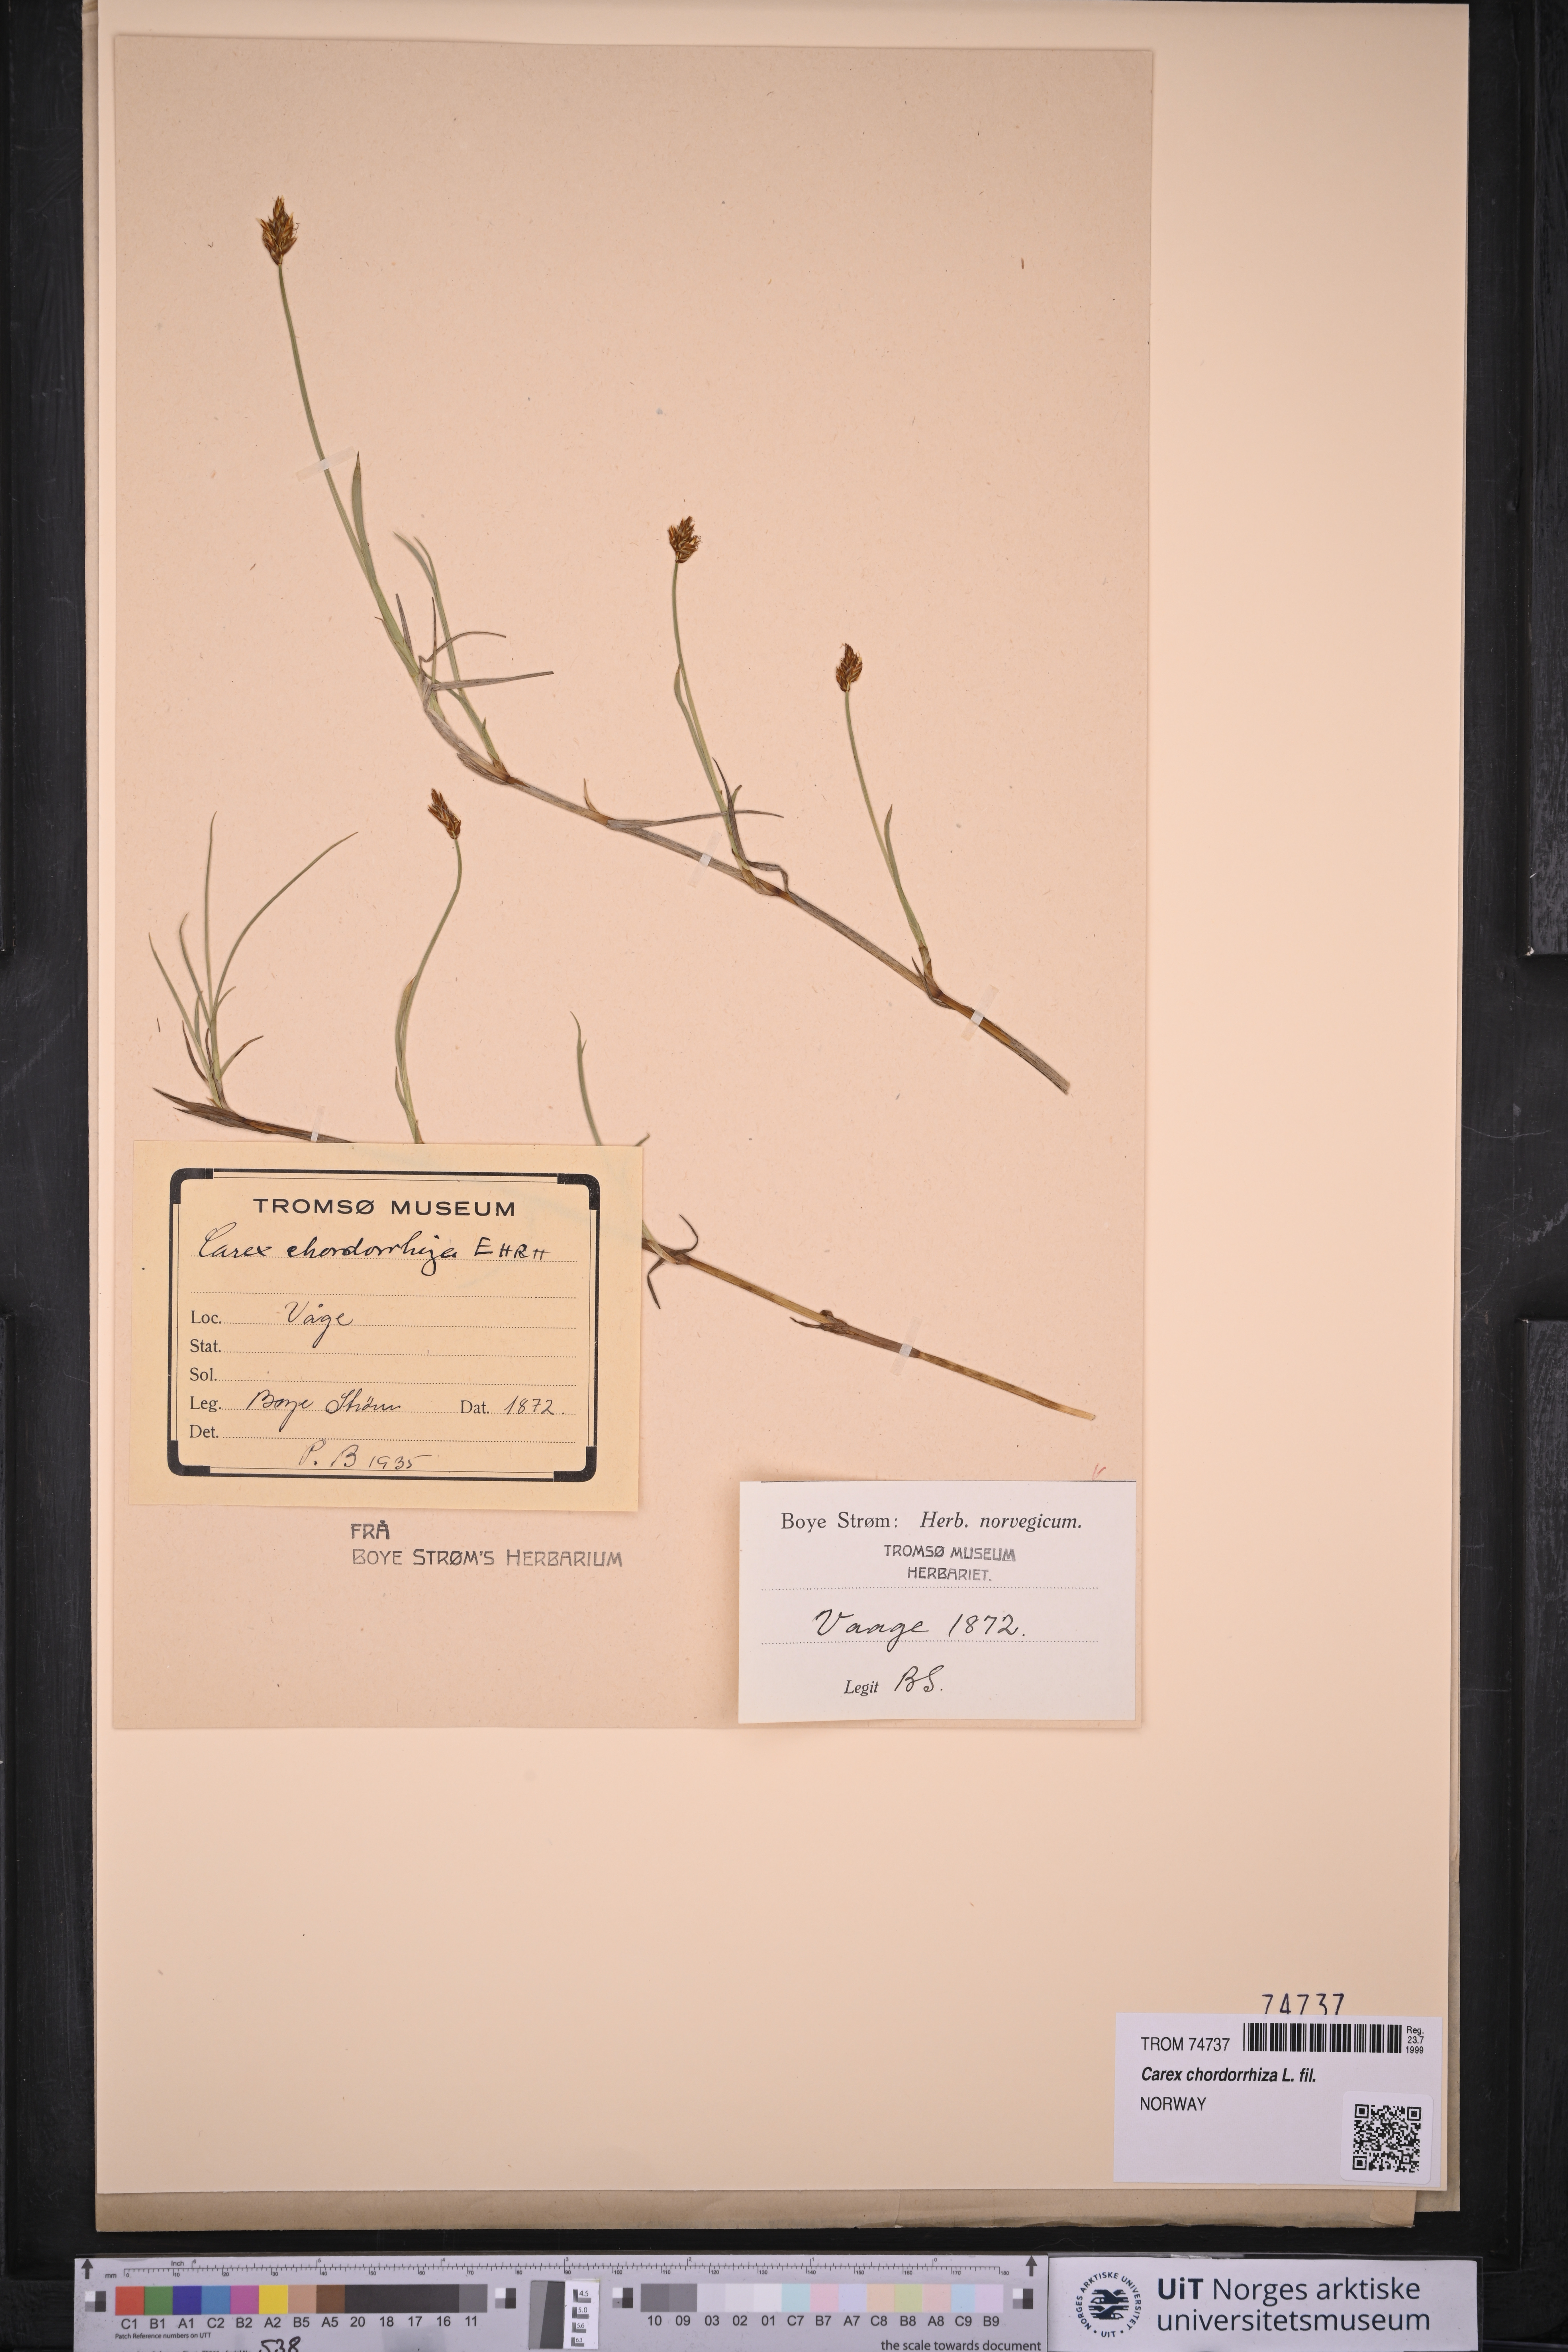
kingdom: Plantae
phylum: Tracheophyta
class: Liliopsida
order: Poales
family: Cyperaceae
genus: Carex
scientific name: Carex chordorrhiza
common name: String sedge
